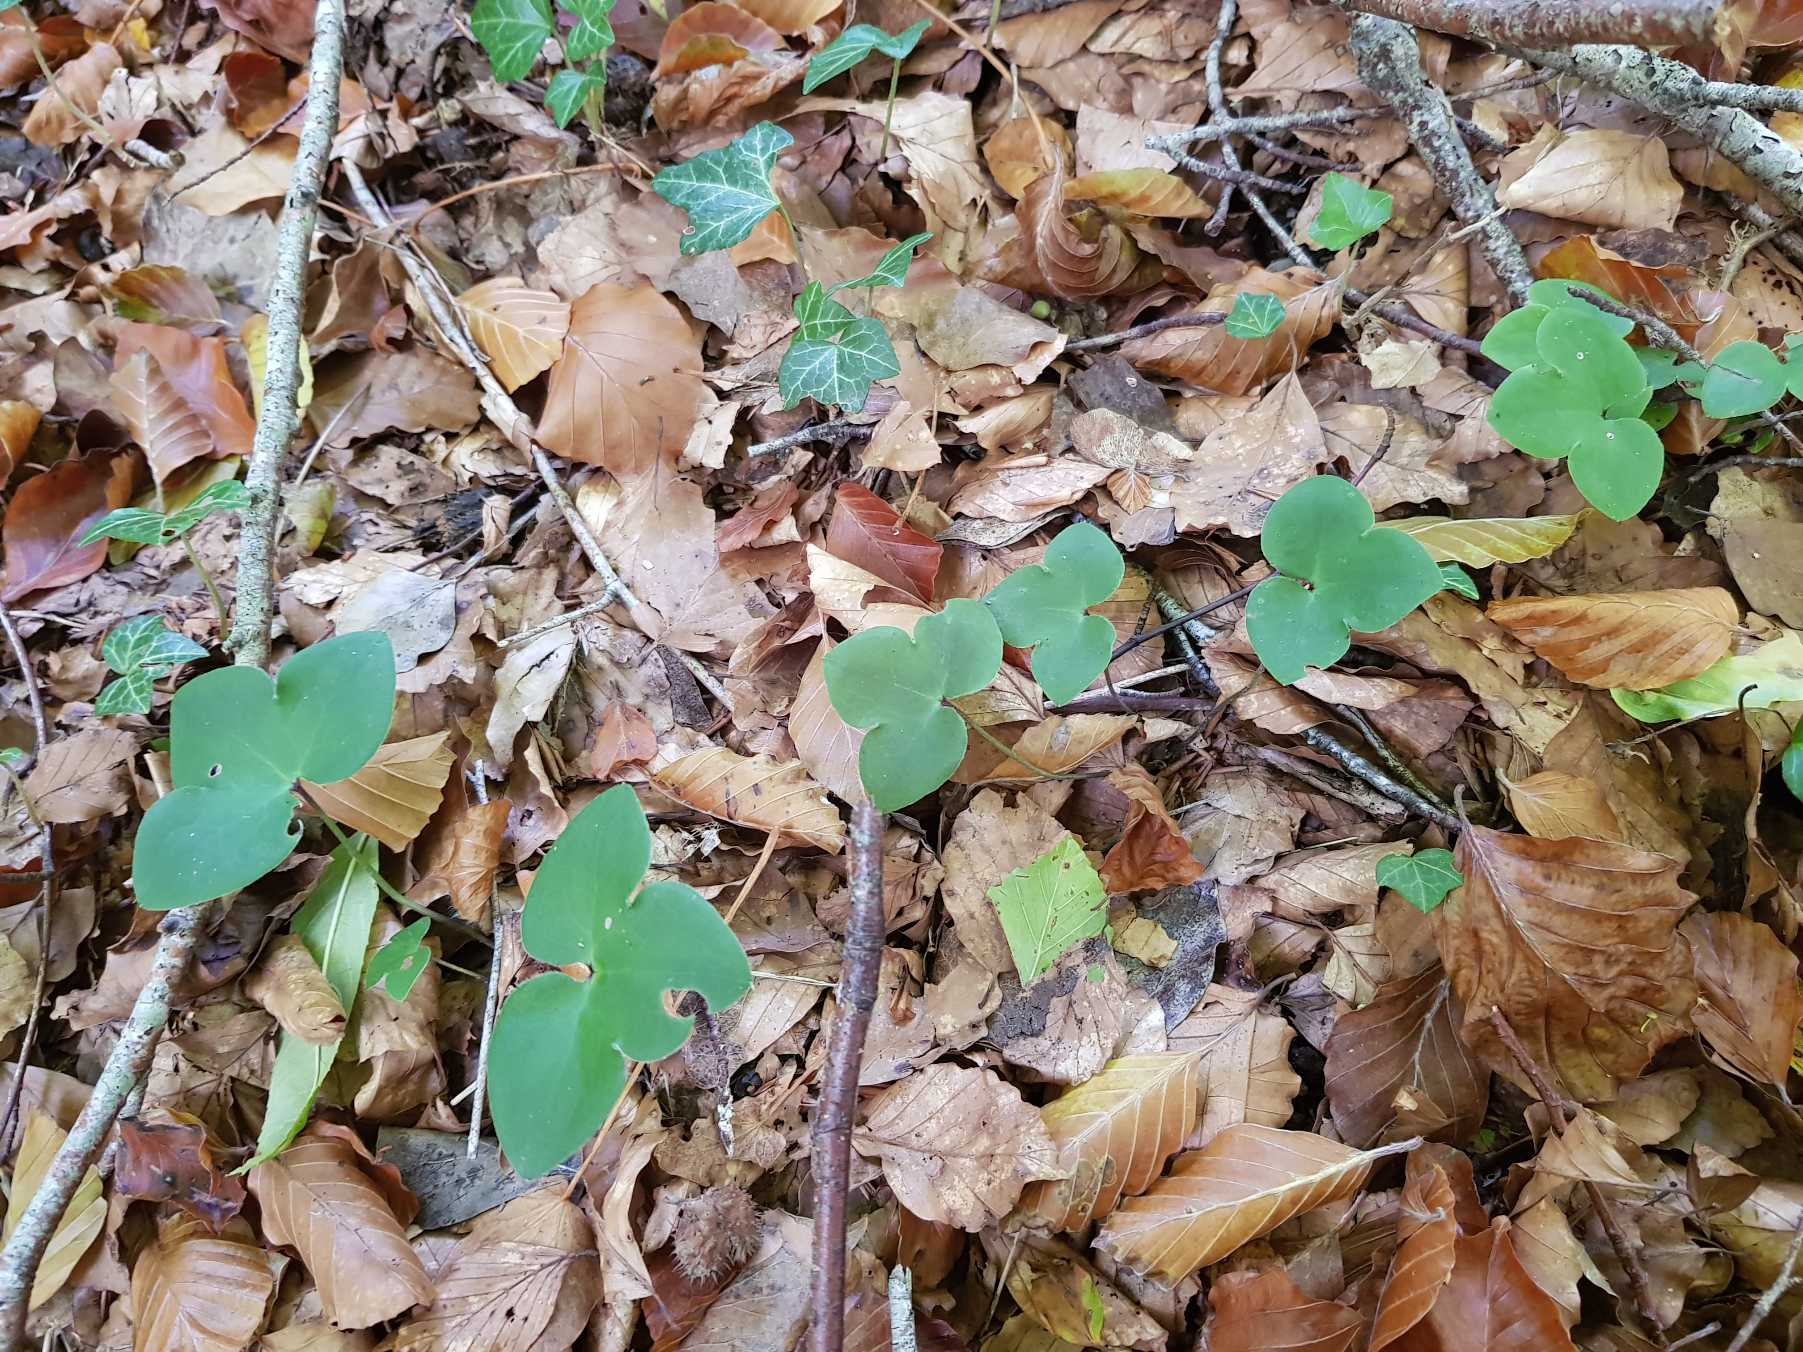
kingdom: Plantae
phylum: Tracheophyta
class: Magnoliopsida
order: Ranunculales
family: Ranunculaceae
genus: Hepatica
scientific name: Hepatica nobilis
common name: Blå anemone
